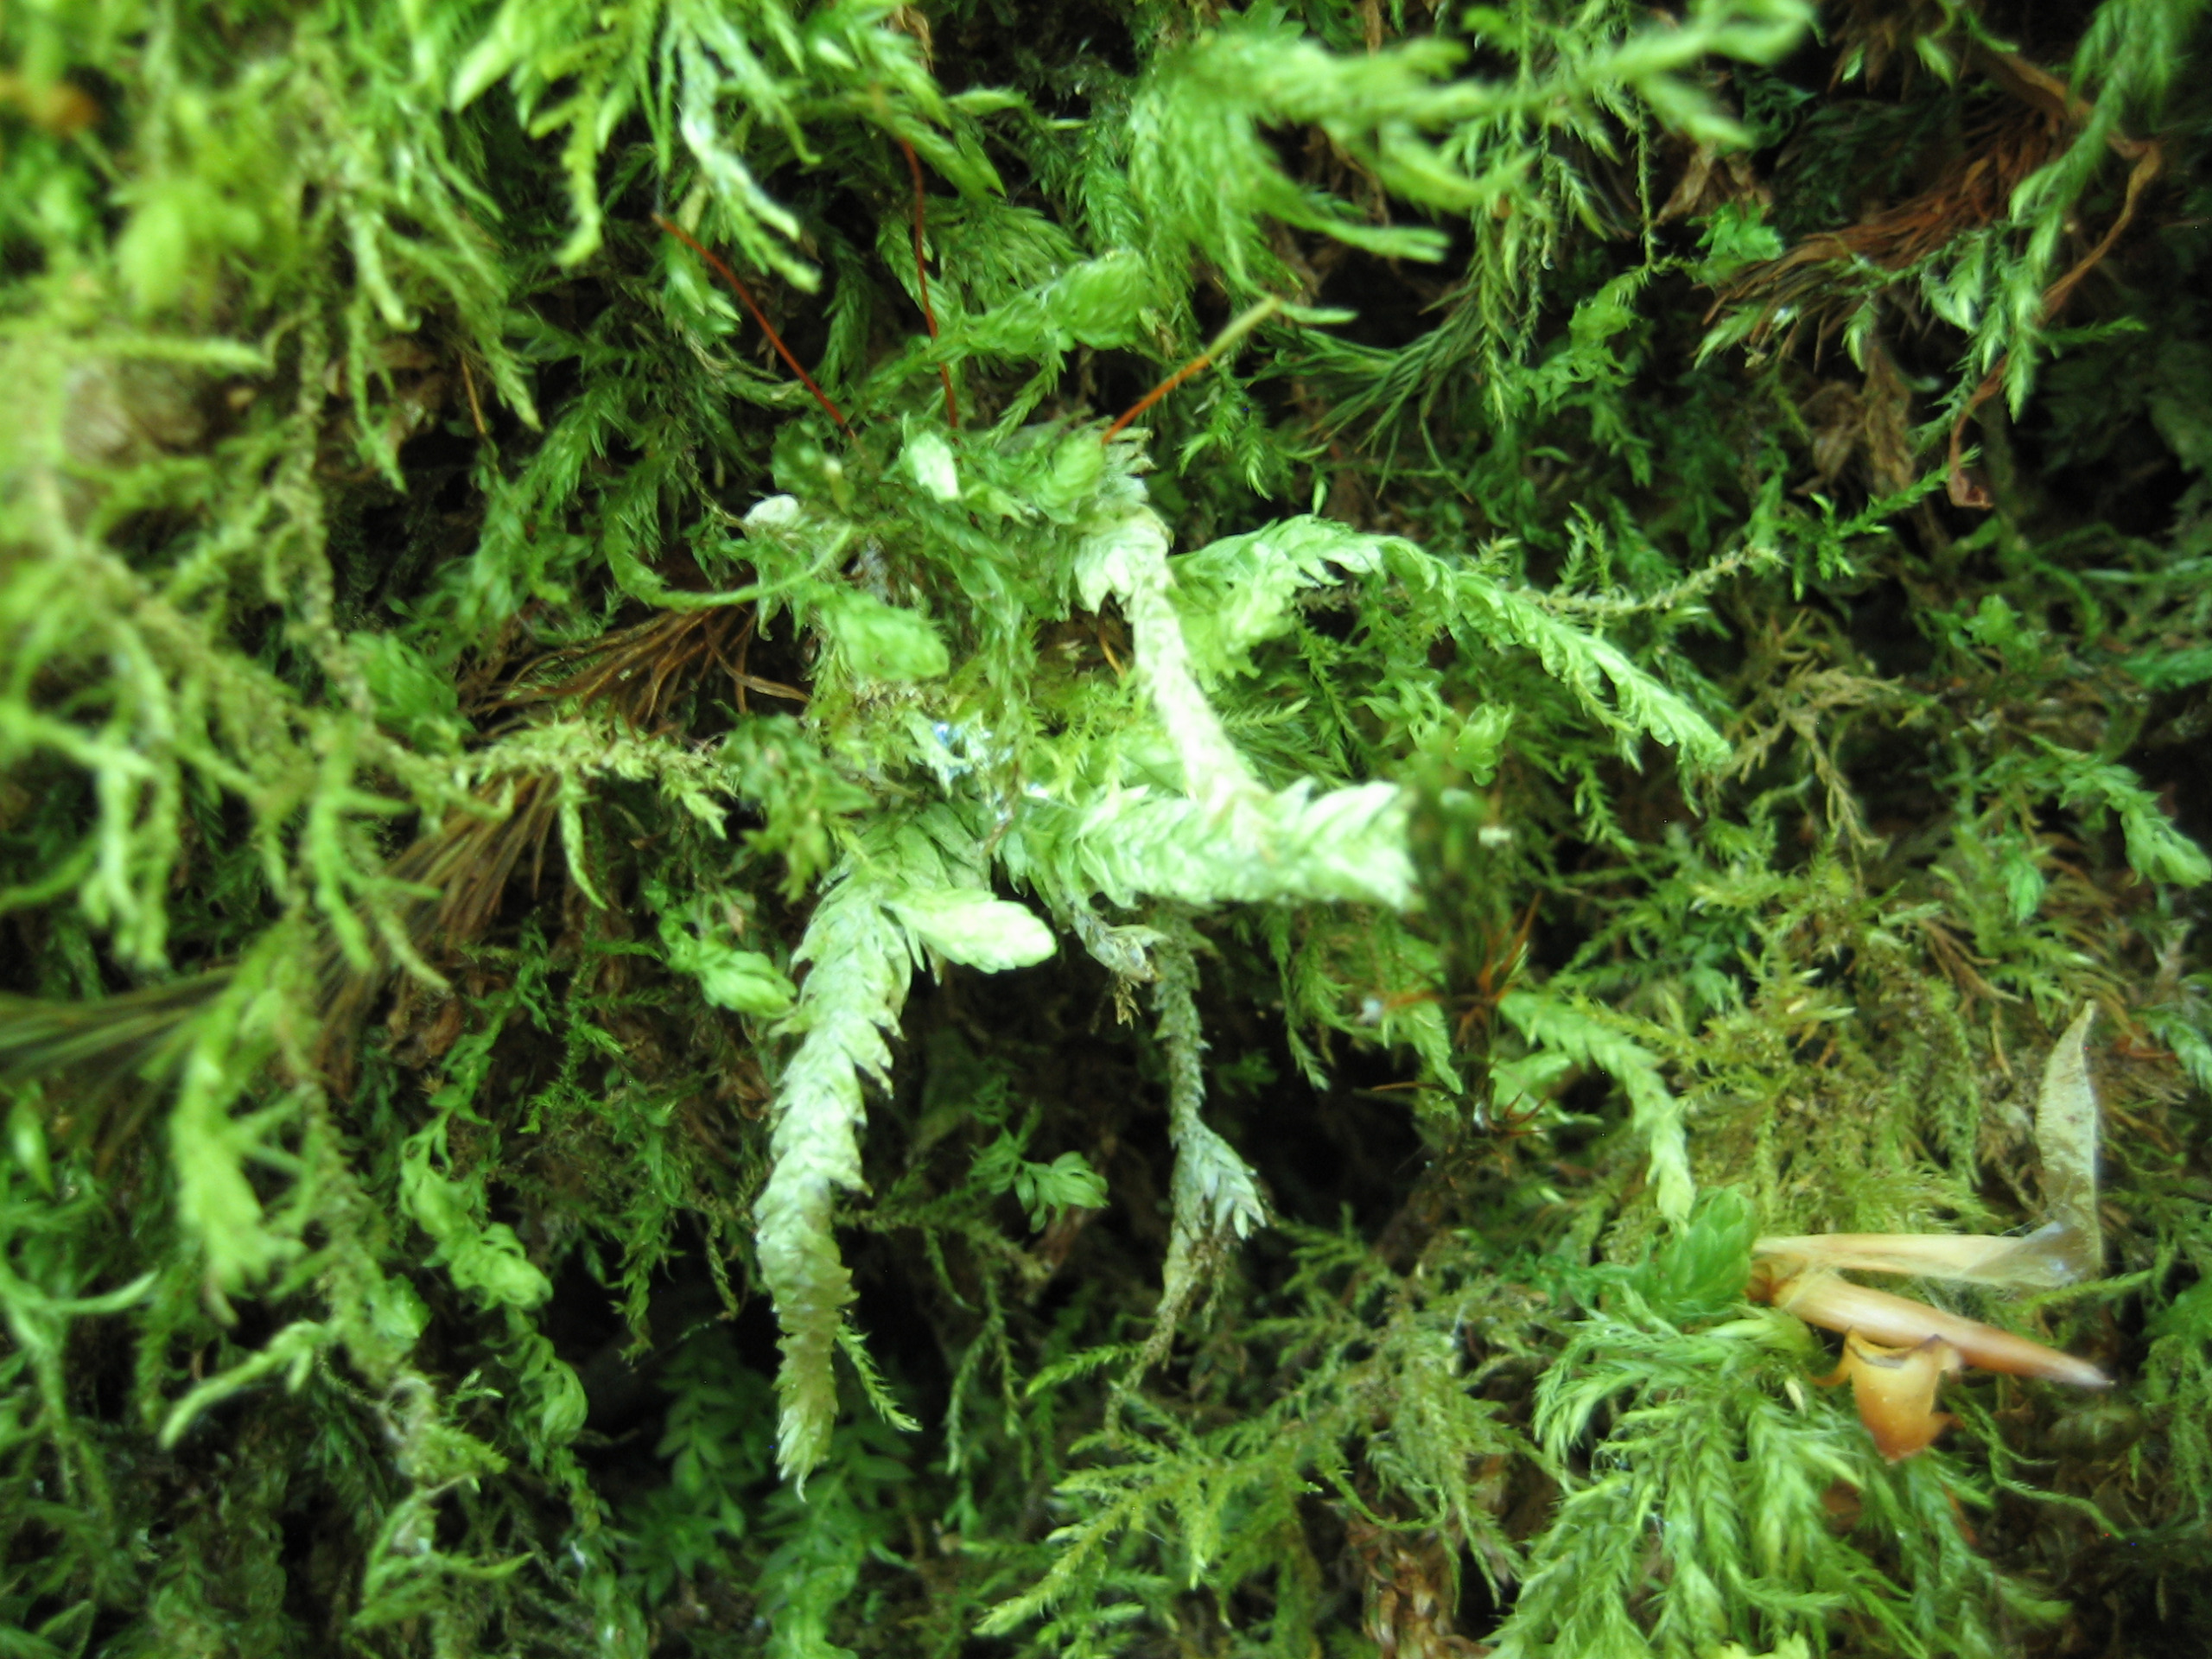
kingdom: Plantae
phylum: Bryophyta
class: Bryopsida
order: Hypnales
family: Plagiotheciaceae
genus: Plagiothecium
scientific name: Plagiothecium undulatum
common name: Bølget tæppemos
